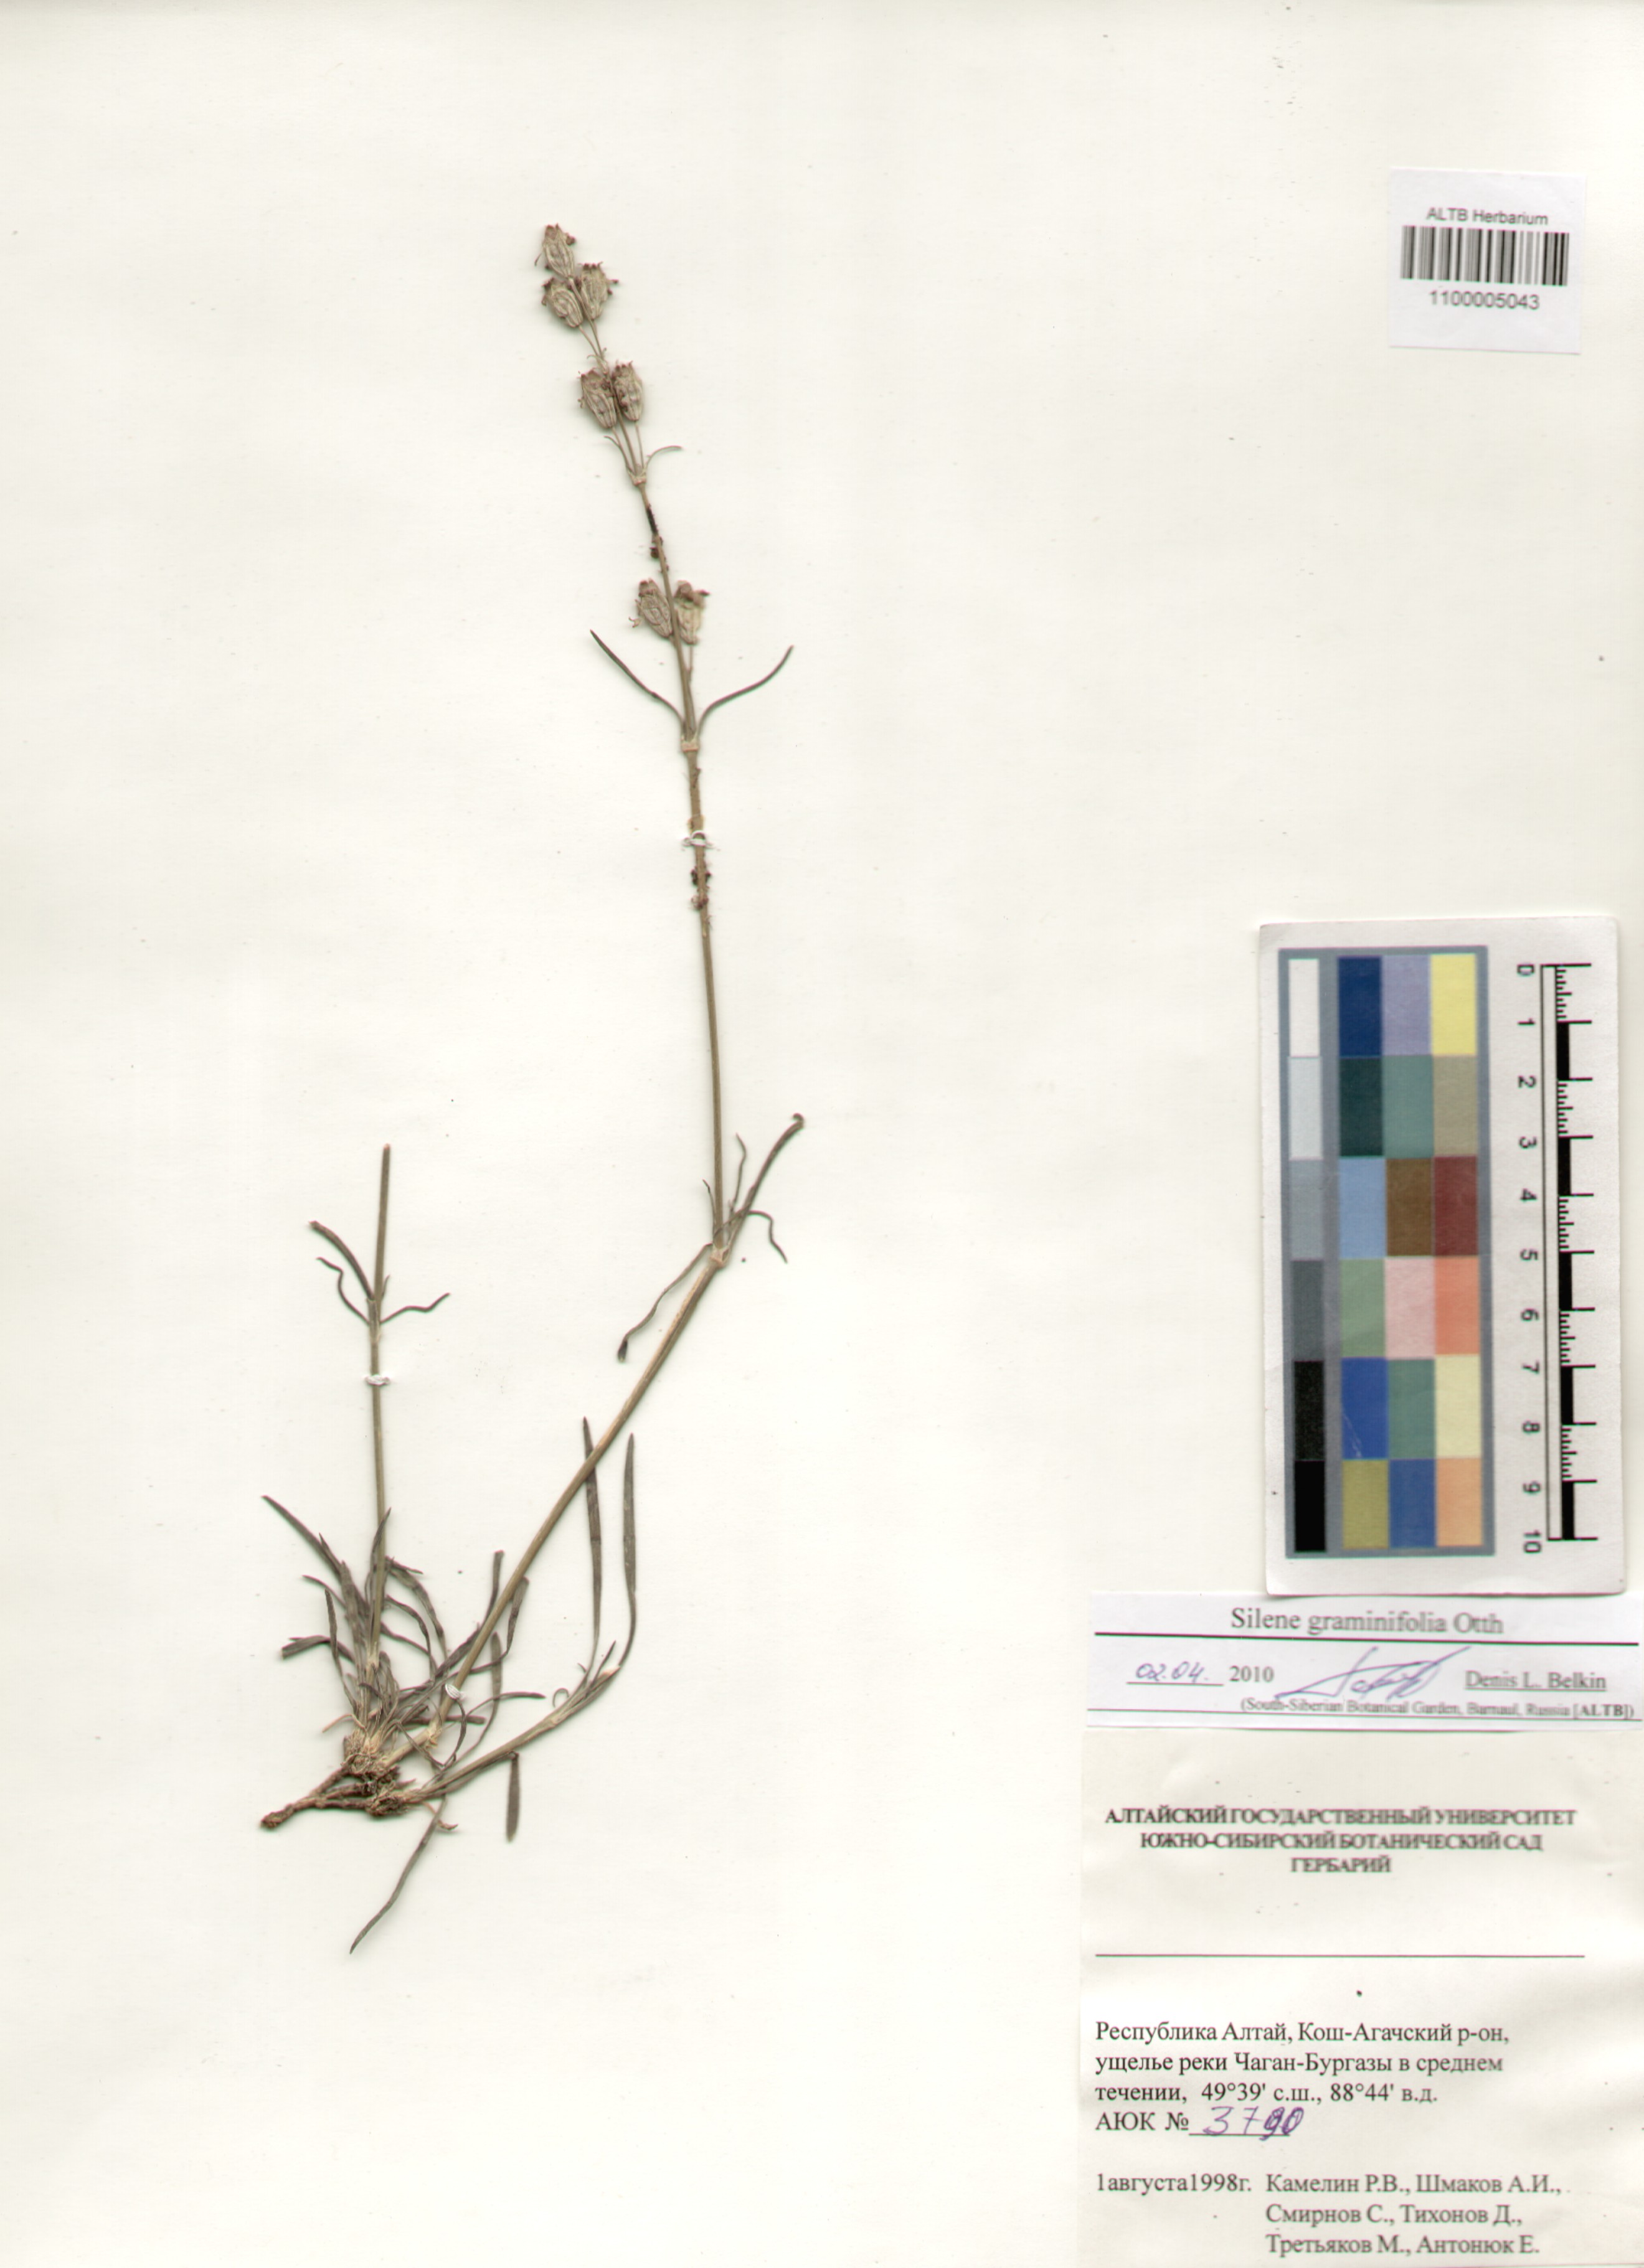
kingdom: Plantae
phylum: Tracheophyta
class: Magnoliopsida
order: Caryophyllales
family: Caryophyllaceae
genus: Silene
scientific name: Silene graminifolia
